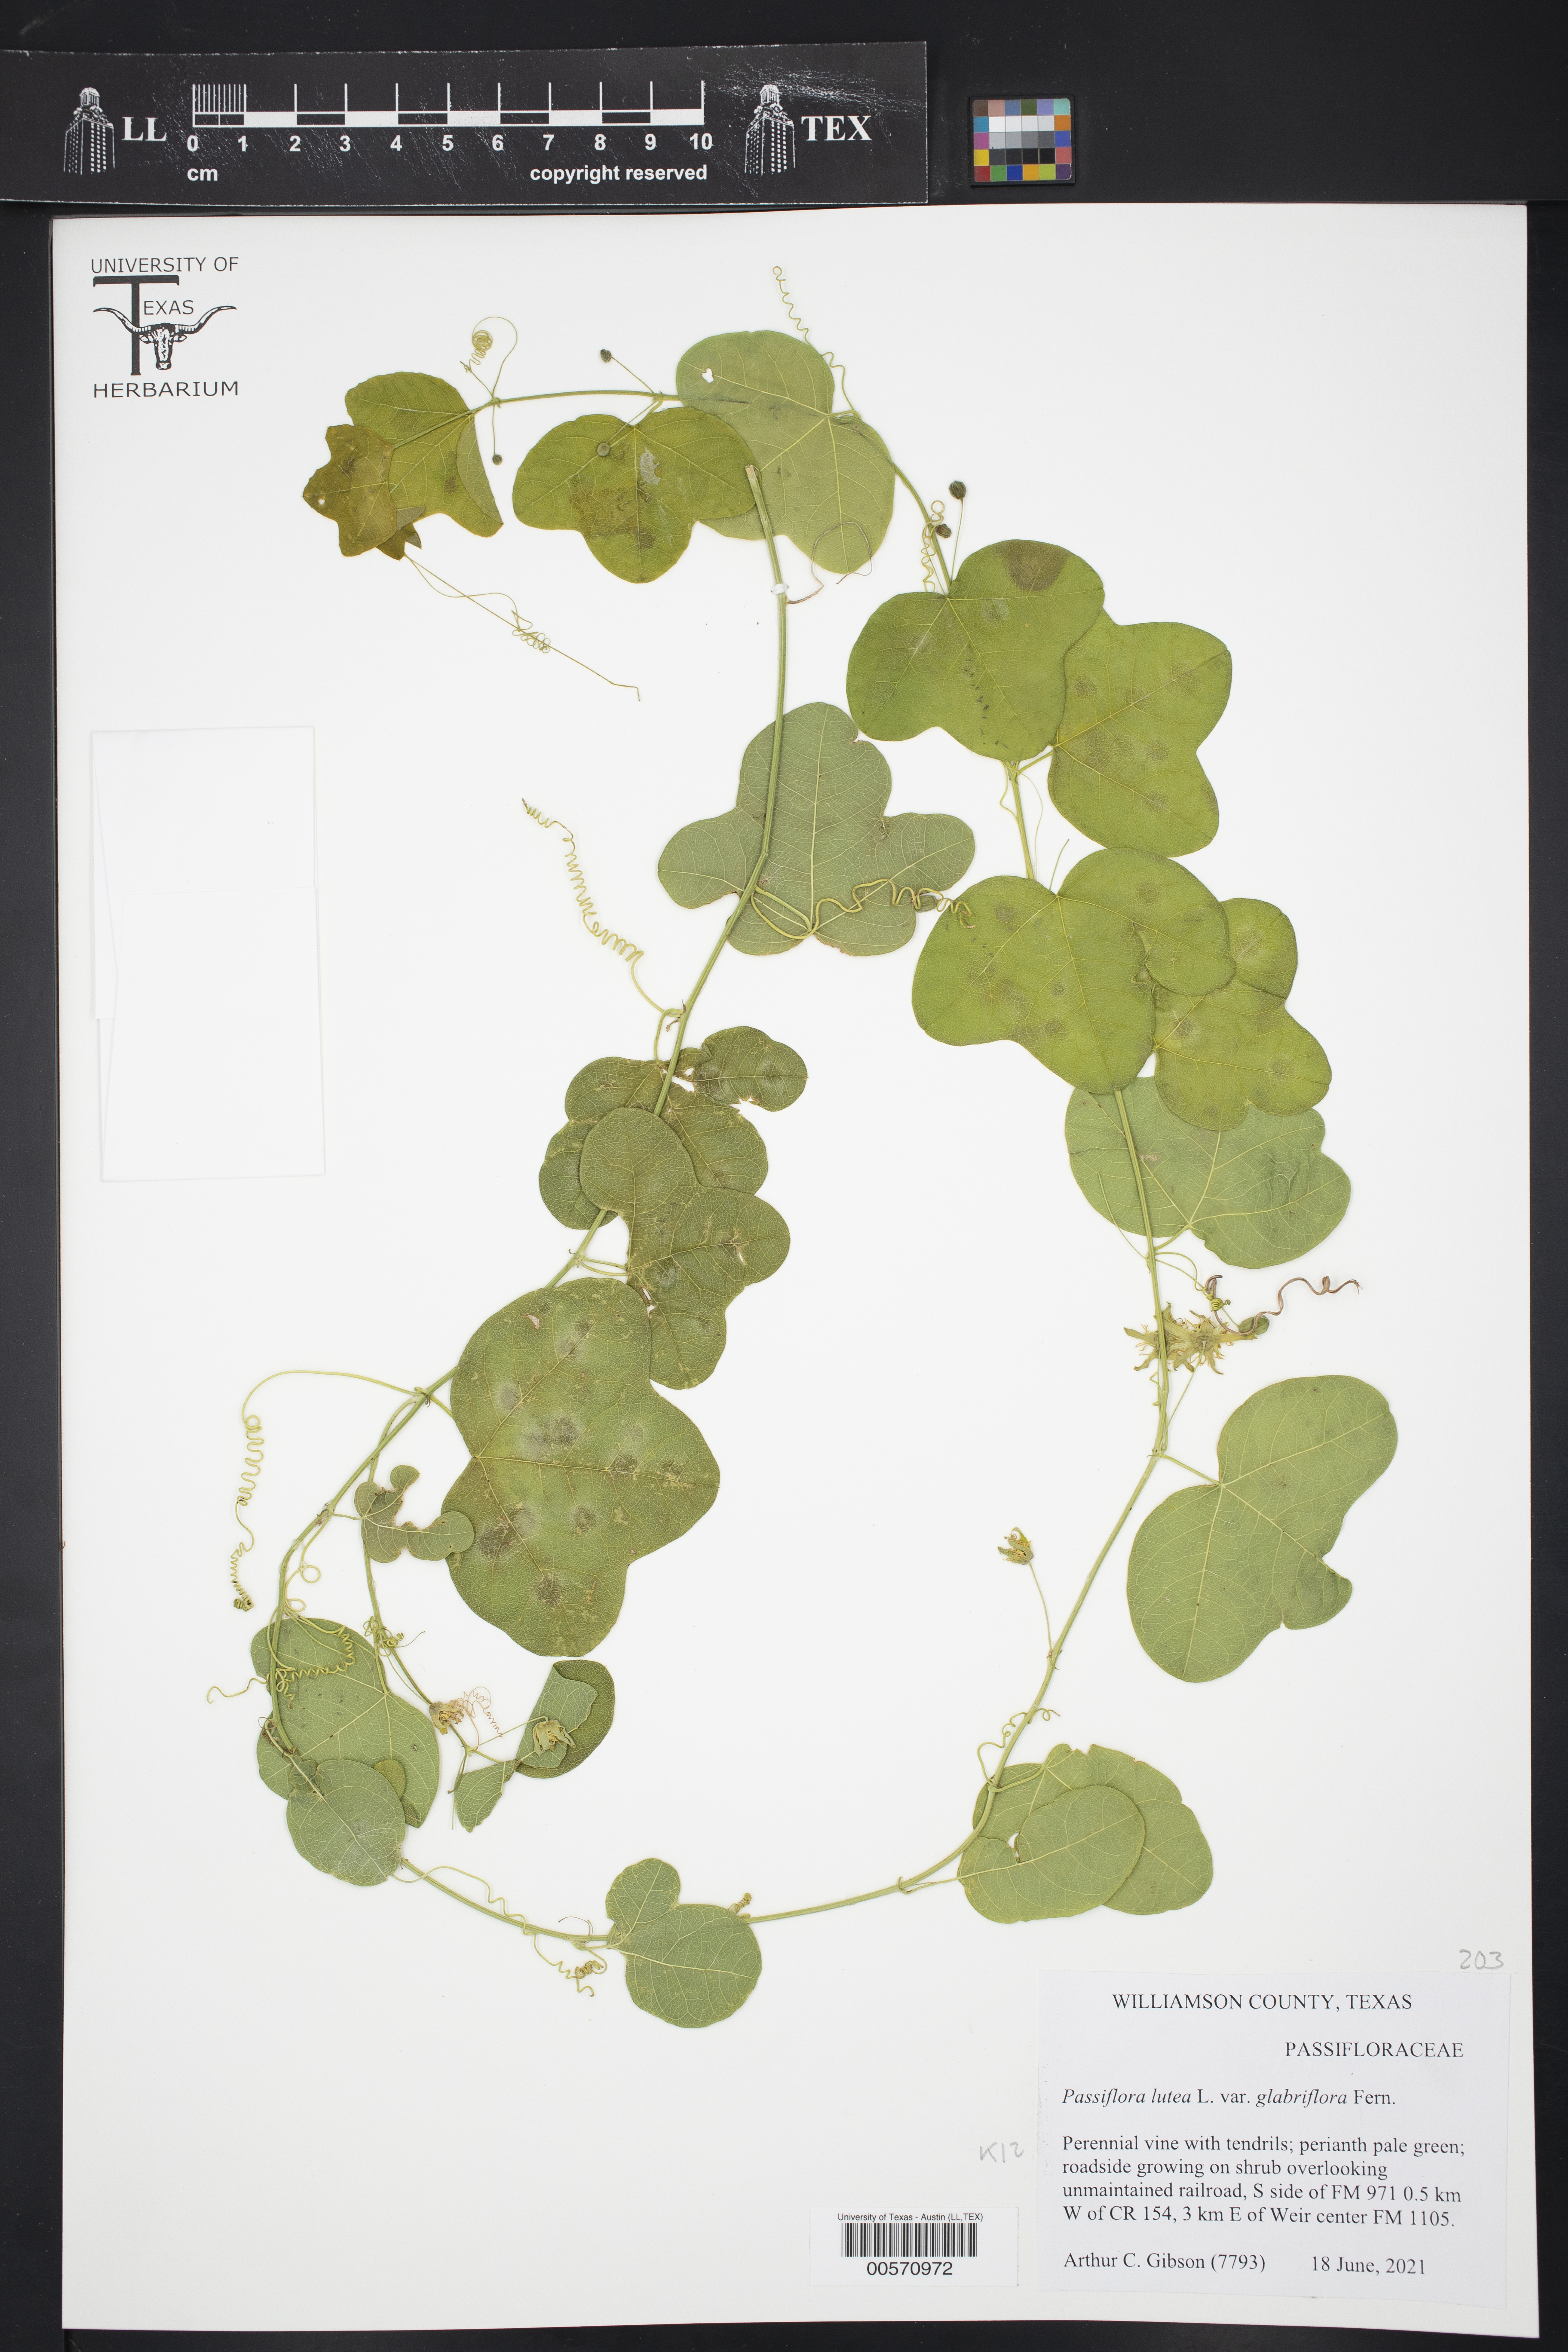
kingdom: Plantae
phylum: Tracheophyta
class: Magnoliopsida
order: Malpighiales
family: Passifloraceae
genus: Passiflora
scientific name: Passiflora lutea
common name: Yellow passionflower
